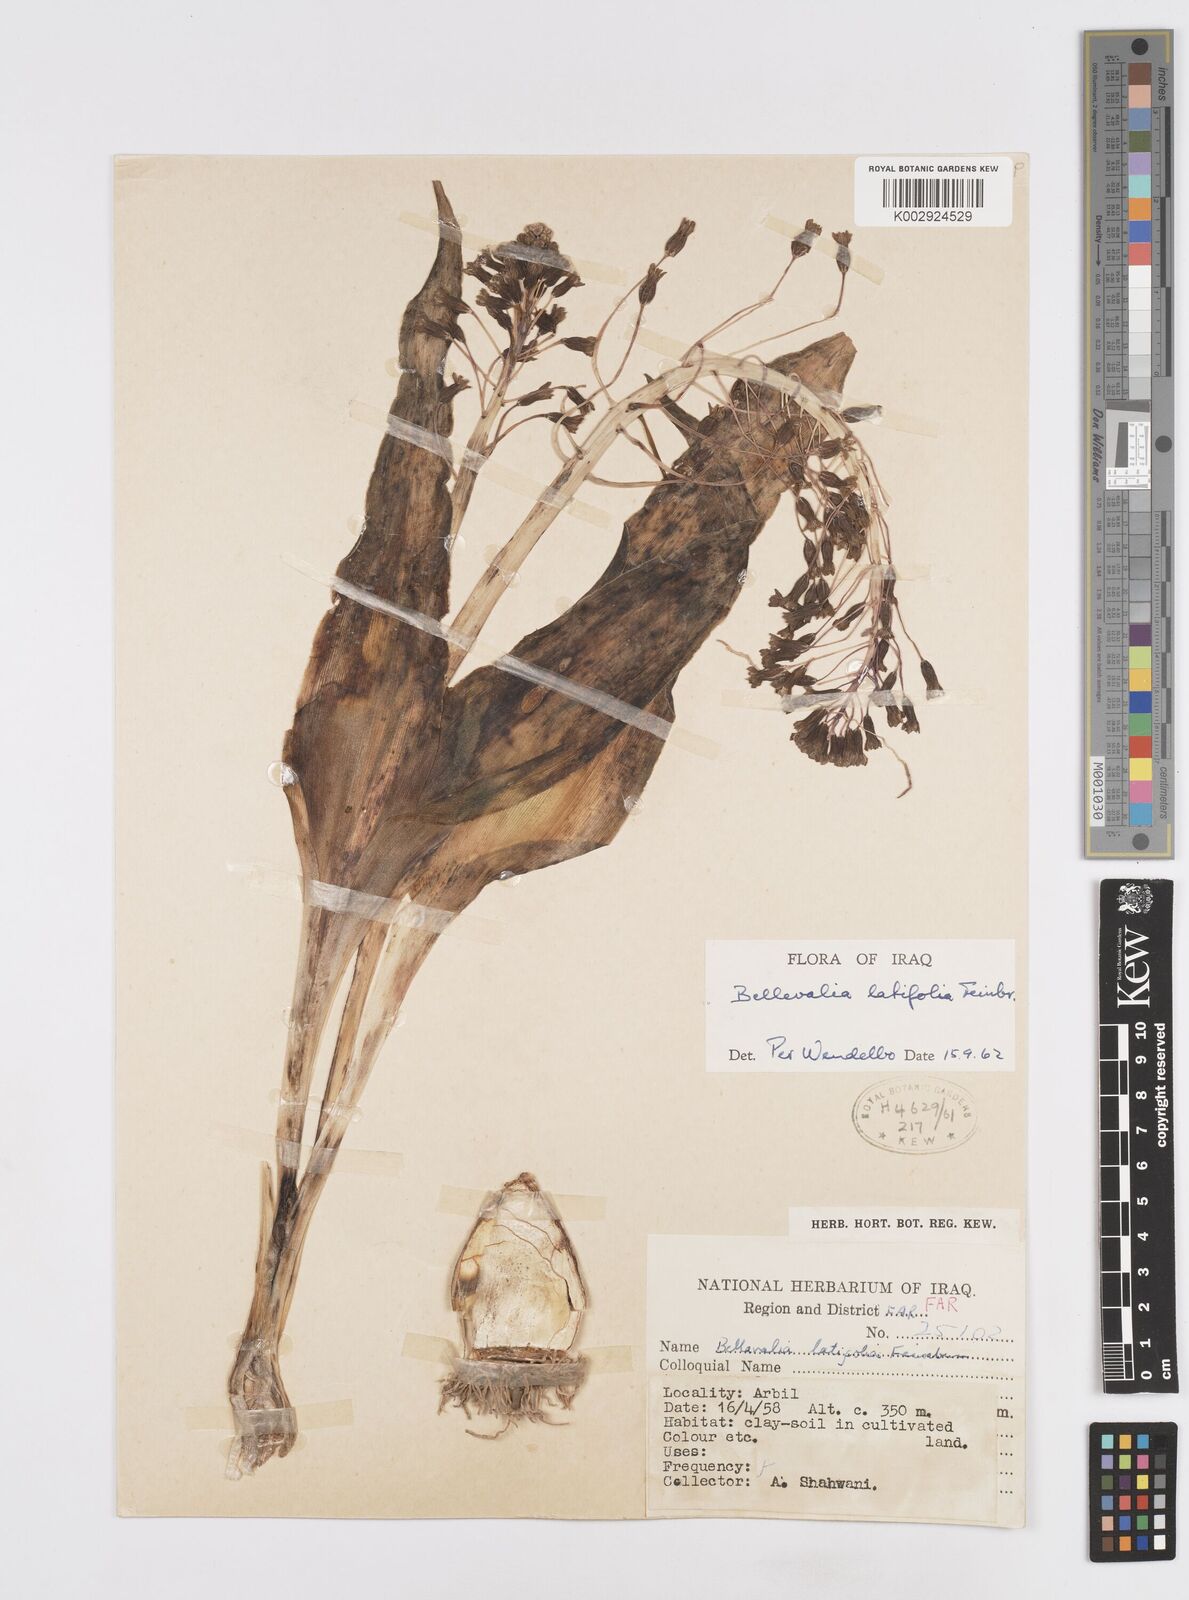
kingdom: Plantae
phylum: Tracheophyta
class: Liliopsida
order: Asparagales
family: Asparagaceae
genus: Bellevalia
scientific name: Bellevalia olivieri
